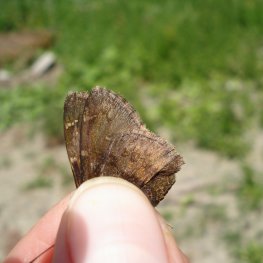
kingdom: Animalia
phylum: Arthropoda
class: Insecta
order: Lepidoptera
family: Hesperiidae
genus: Autochton
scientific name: Autochton
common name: Northern Cloudywing
